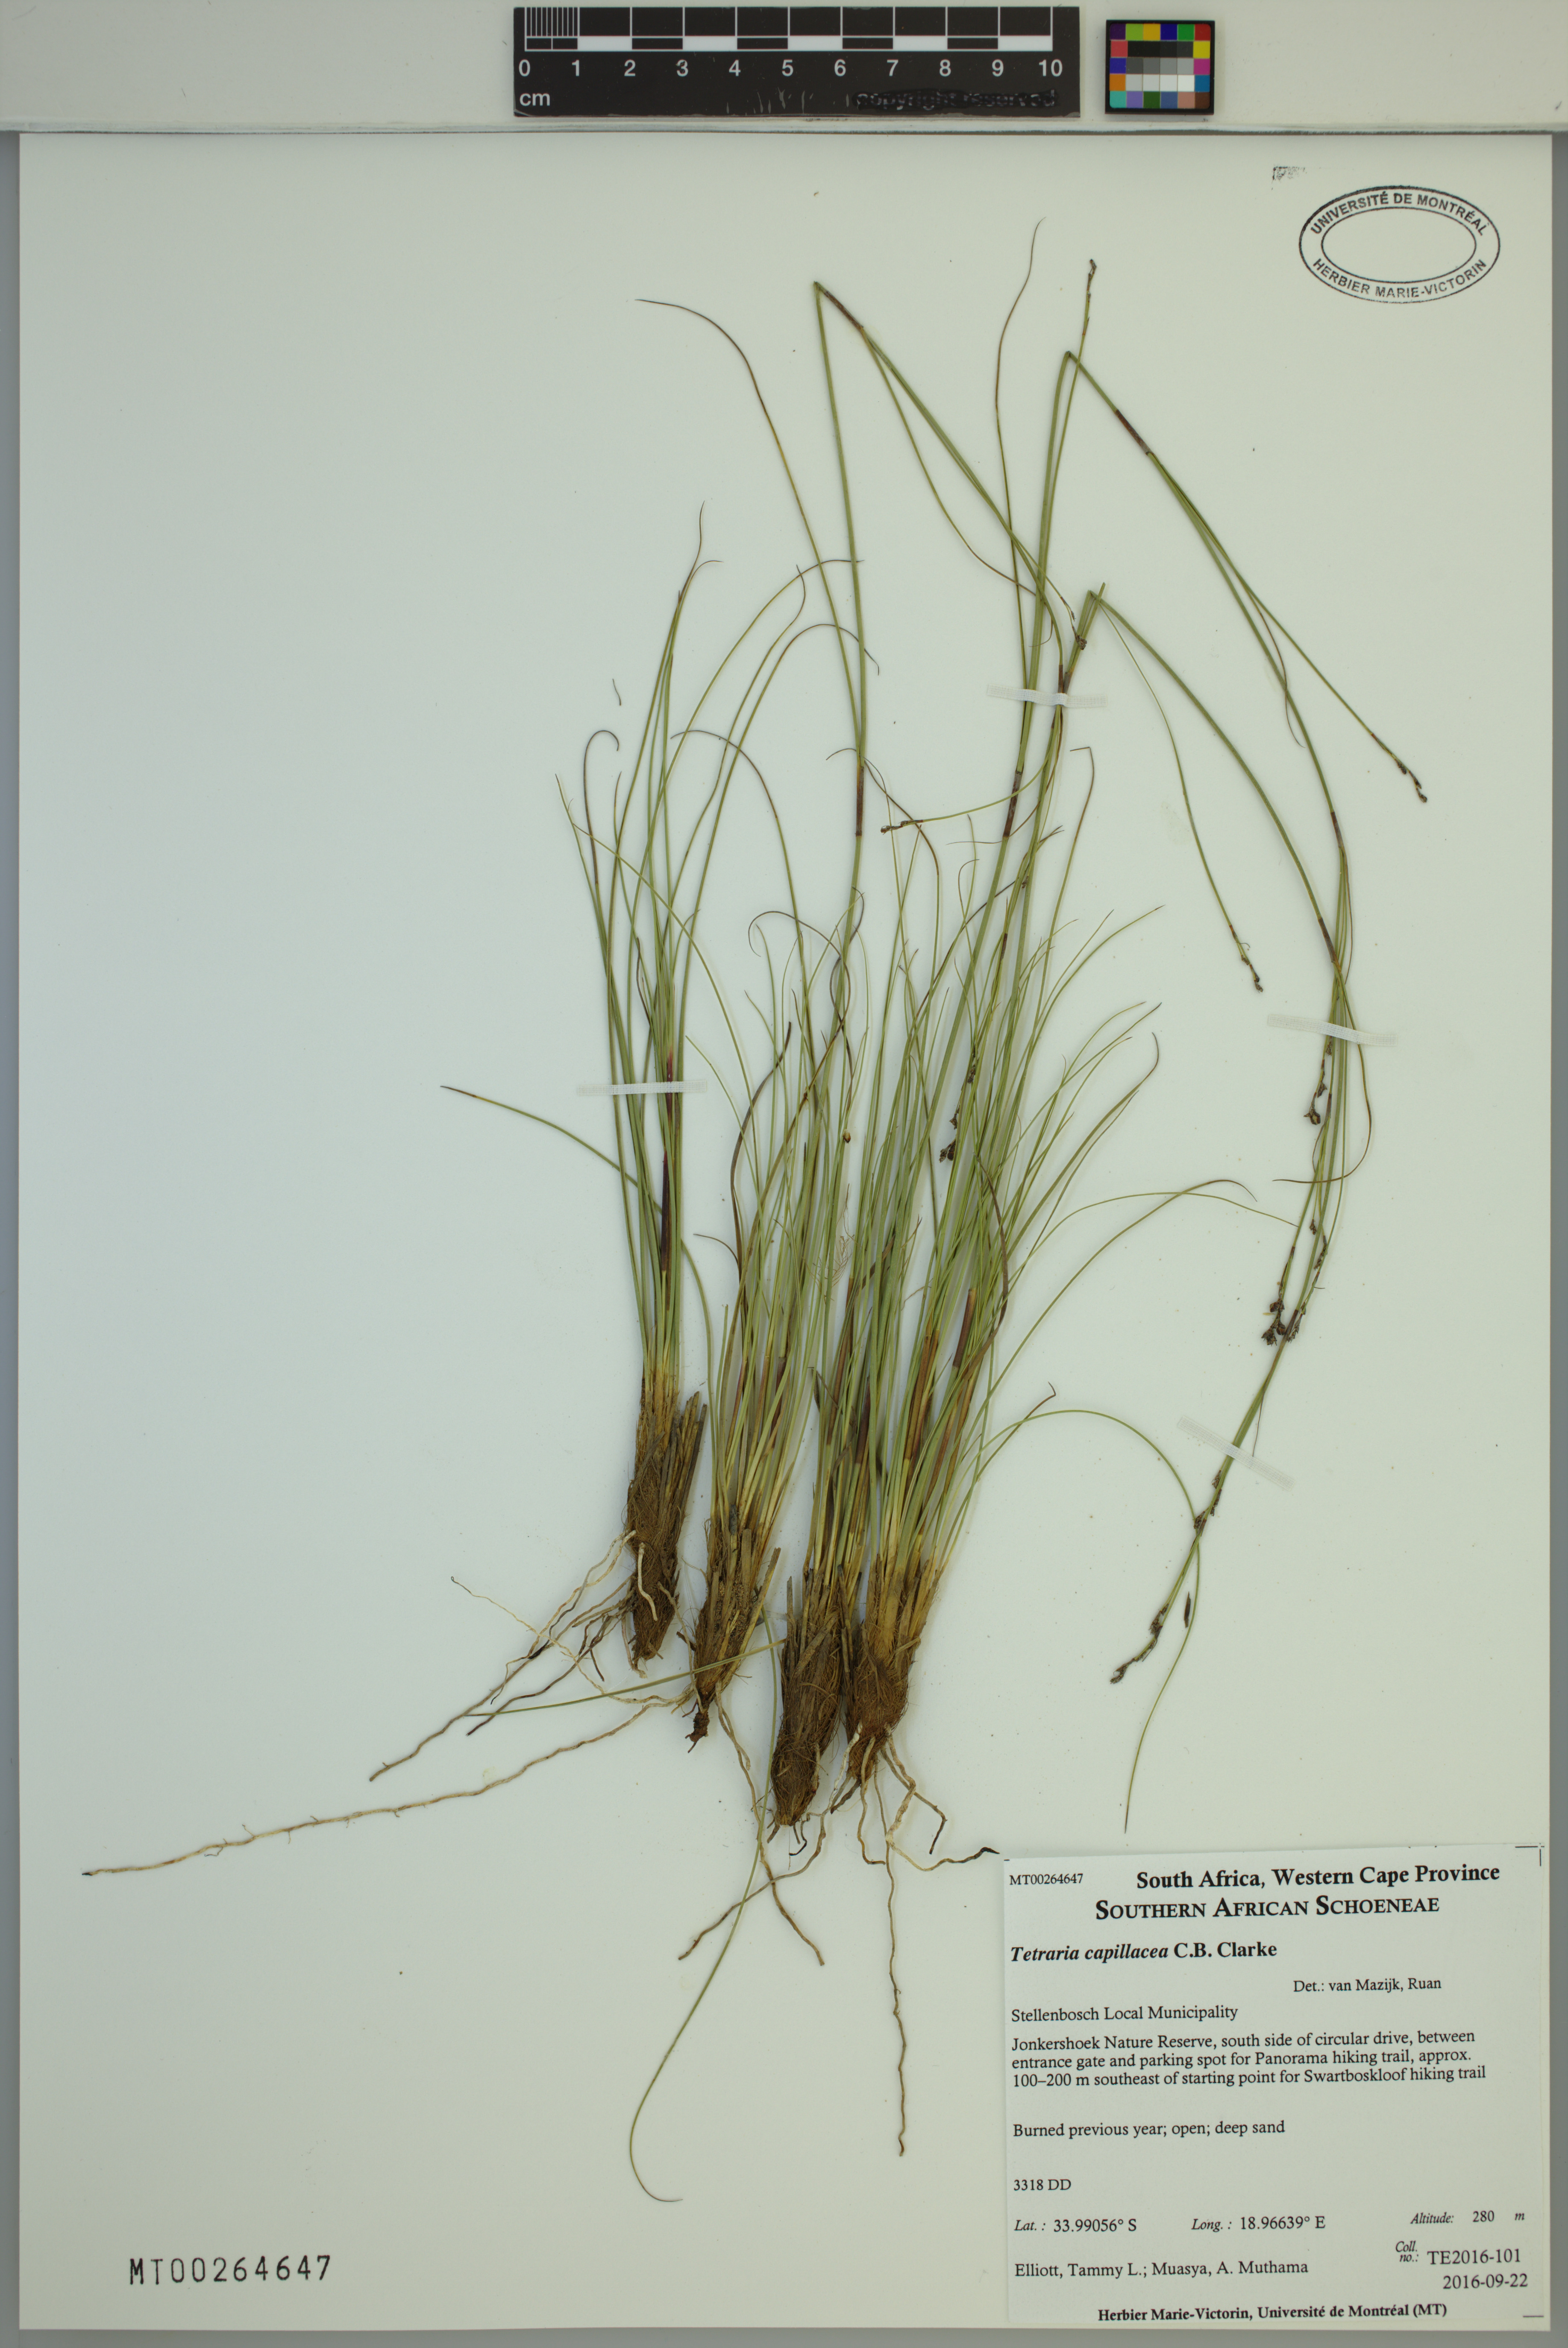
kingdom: Plantae
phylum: Tracheophyta
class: Liliopsida
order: Poales
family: Cyperaceae
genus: Tetraria
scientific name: Tetraria capillacea
